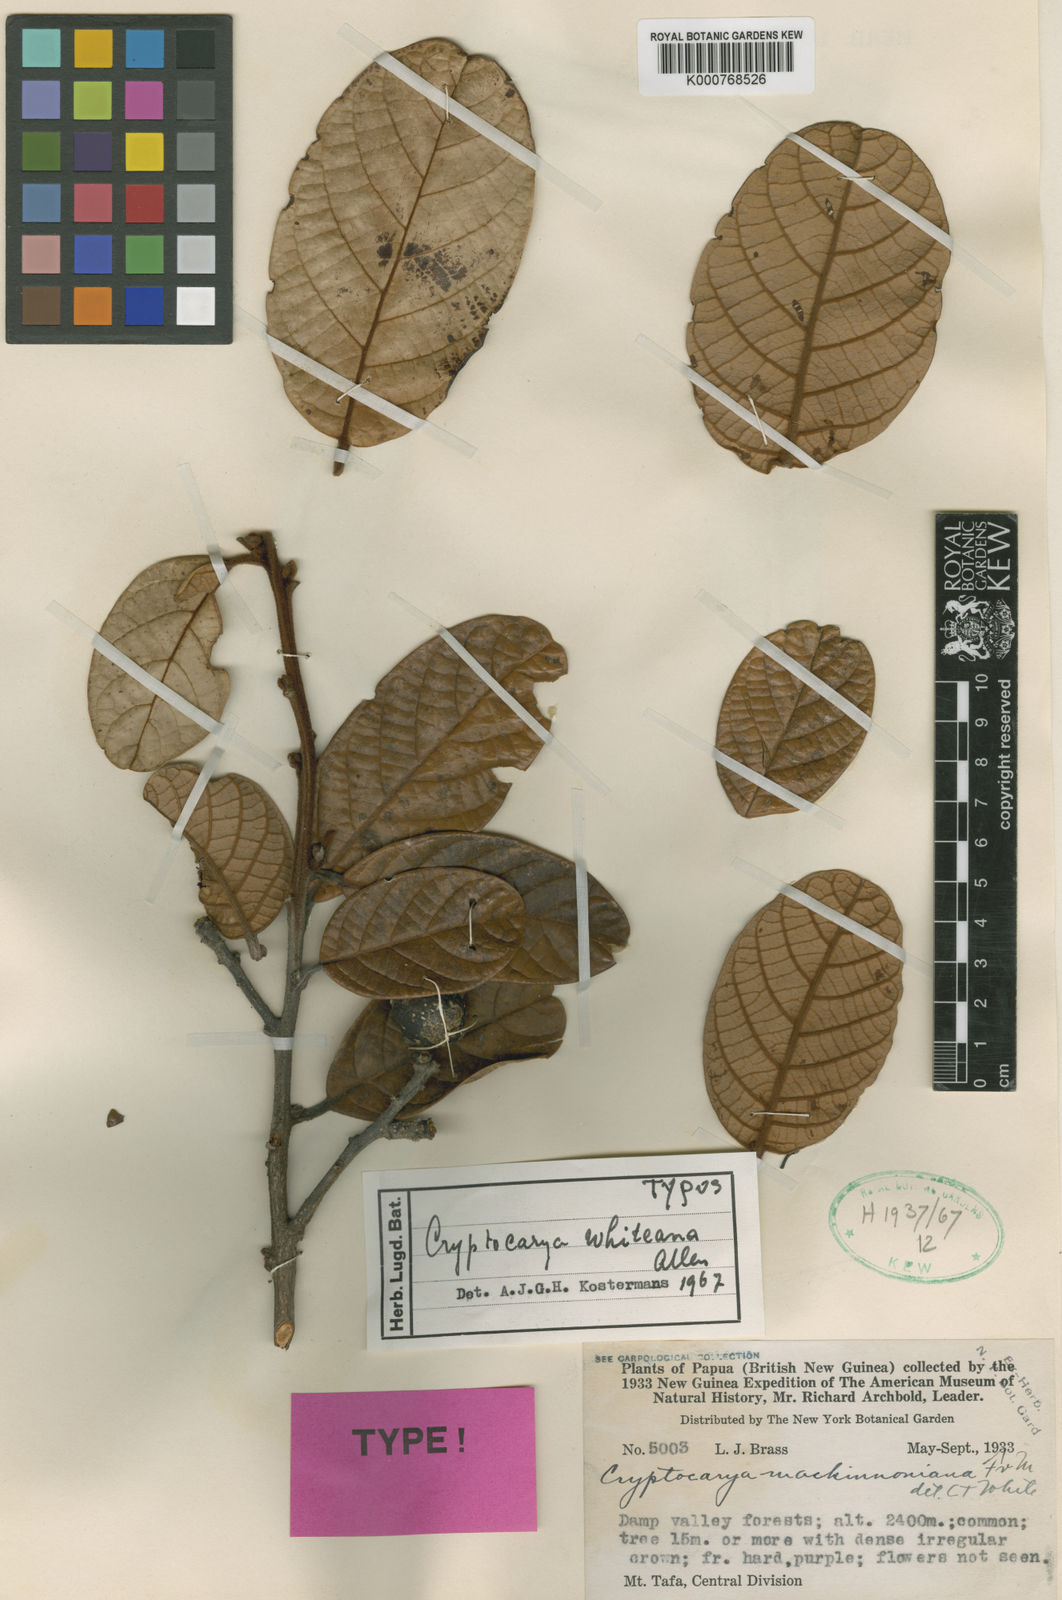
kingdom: Plantae
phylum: Tracheophyta
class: Magnoliopsida
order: Laurales
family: Lauraceae
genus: Cryptocarya
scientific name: Cryptocarya whiteana
